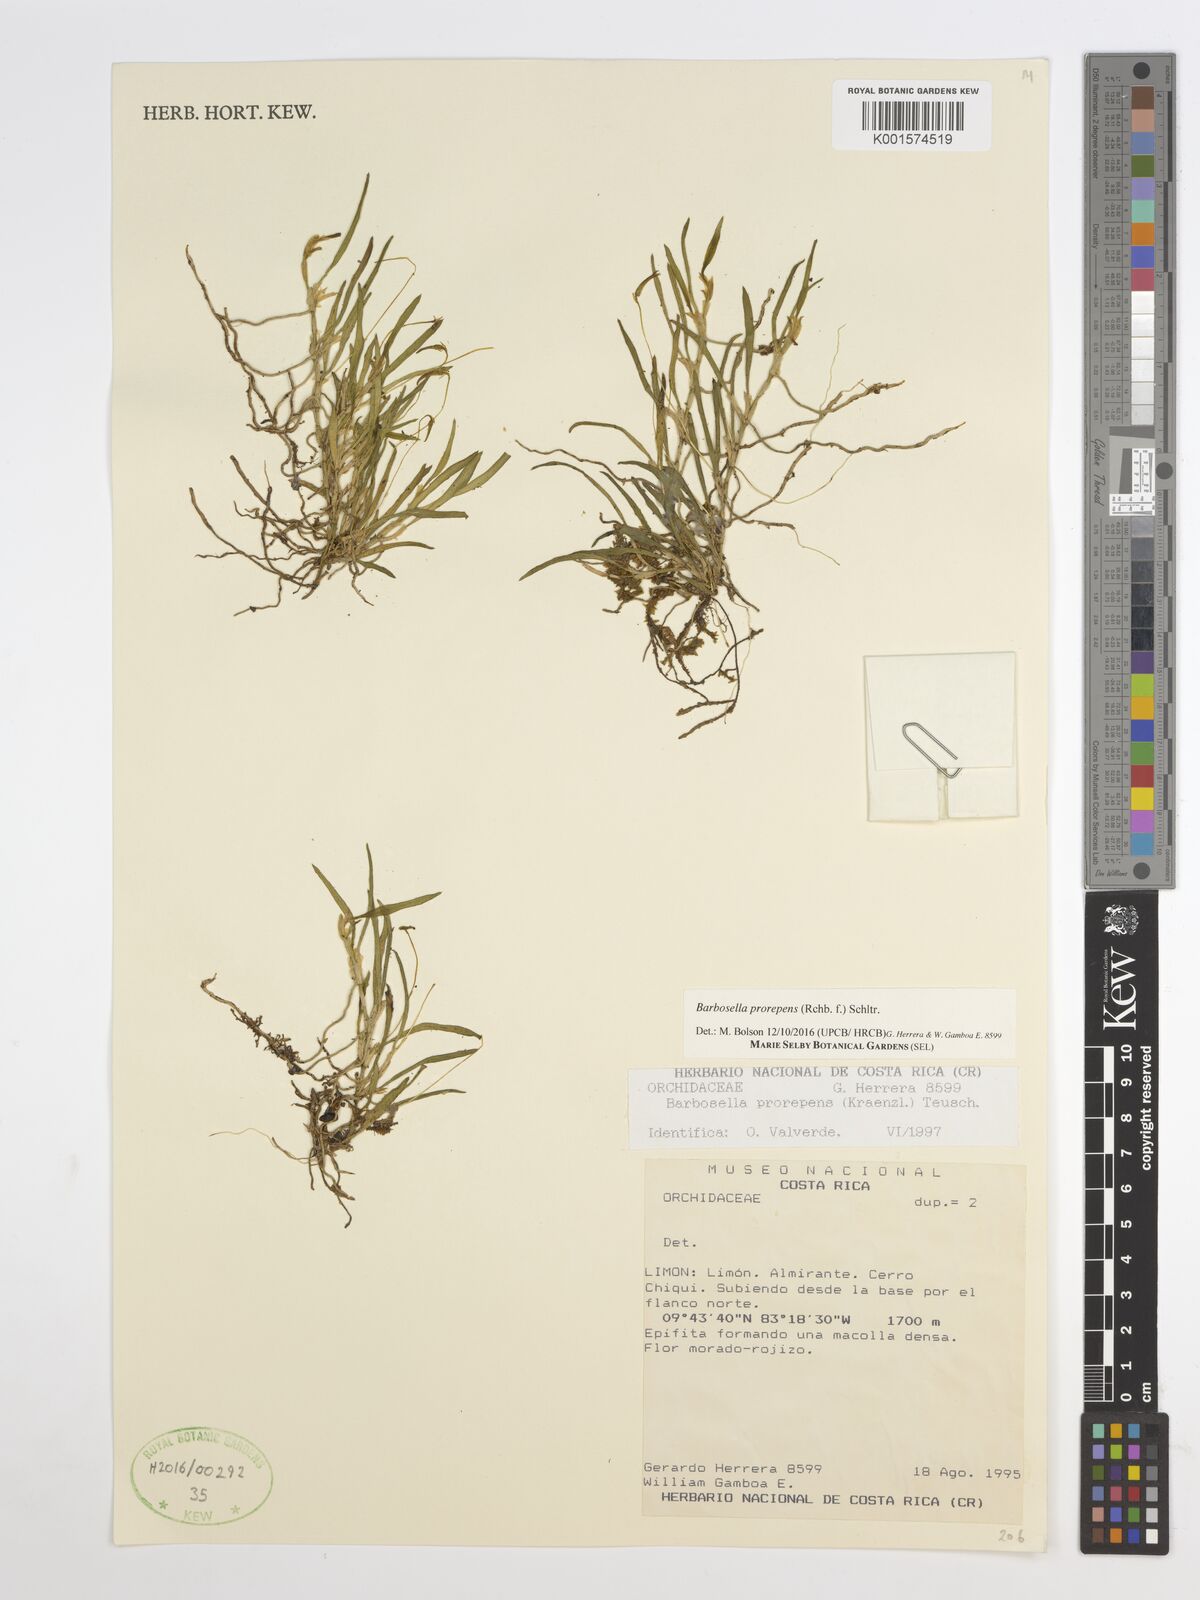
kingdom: Plantae
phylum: Tracheophyta
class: Liliopsida
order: Asparagales
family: Orchidaceae
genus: Barbosella
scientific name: Barbosella prorepens
